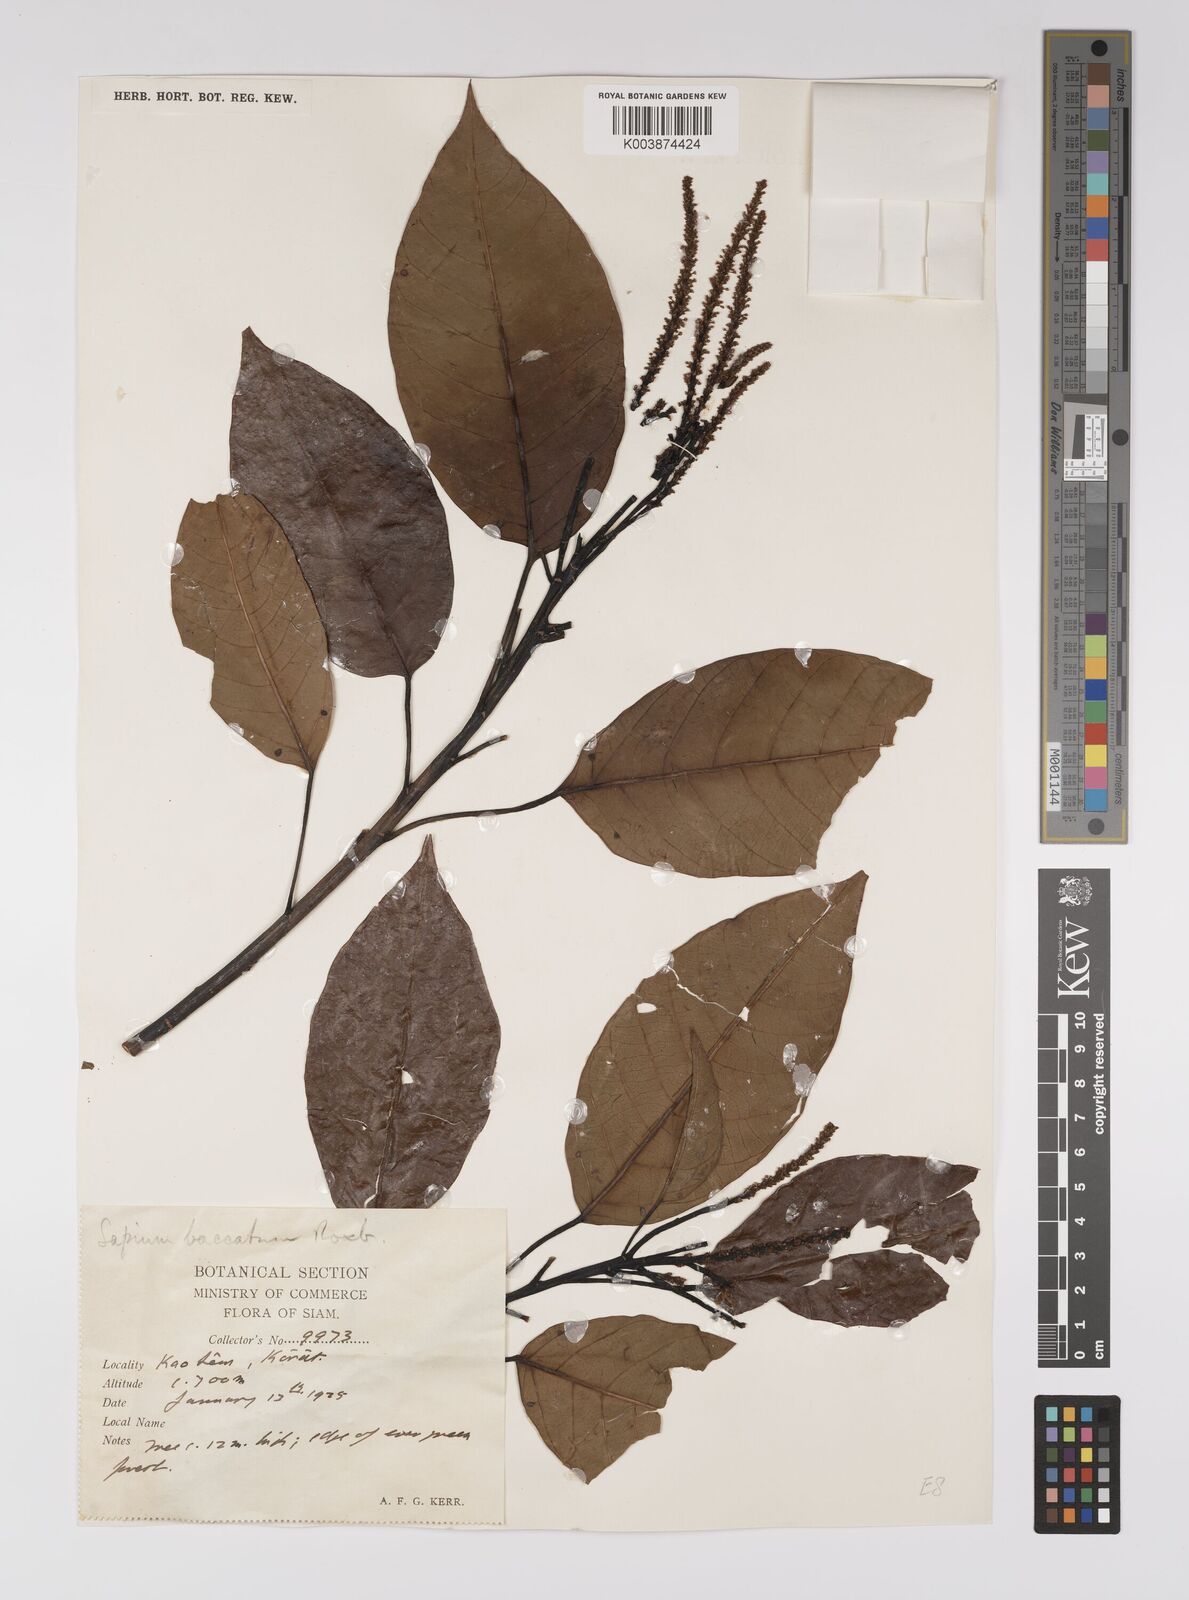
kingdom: Plantae
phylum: Tracheophyta
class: Magnoliopsida
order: Malpighiales
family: Euphorbiaceae
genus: Balakata
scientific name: Balakata baccata
